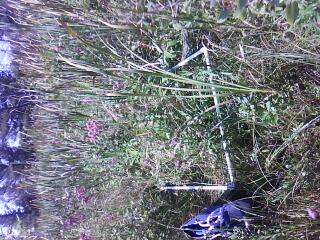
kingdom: Plantae
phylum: Tracheophyta
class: Magnoliopsida
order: Asterales
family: Asteraceae
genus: Eutrochium
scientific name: Eutrochium maculatum
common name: Spotted joe pye weed
